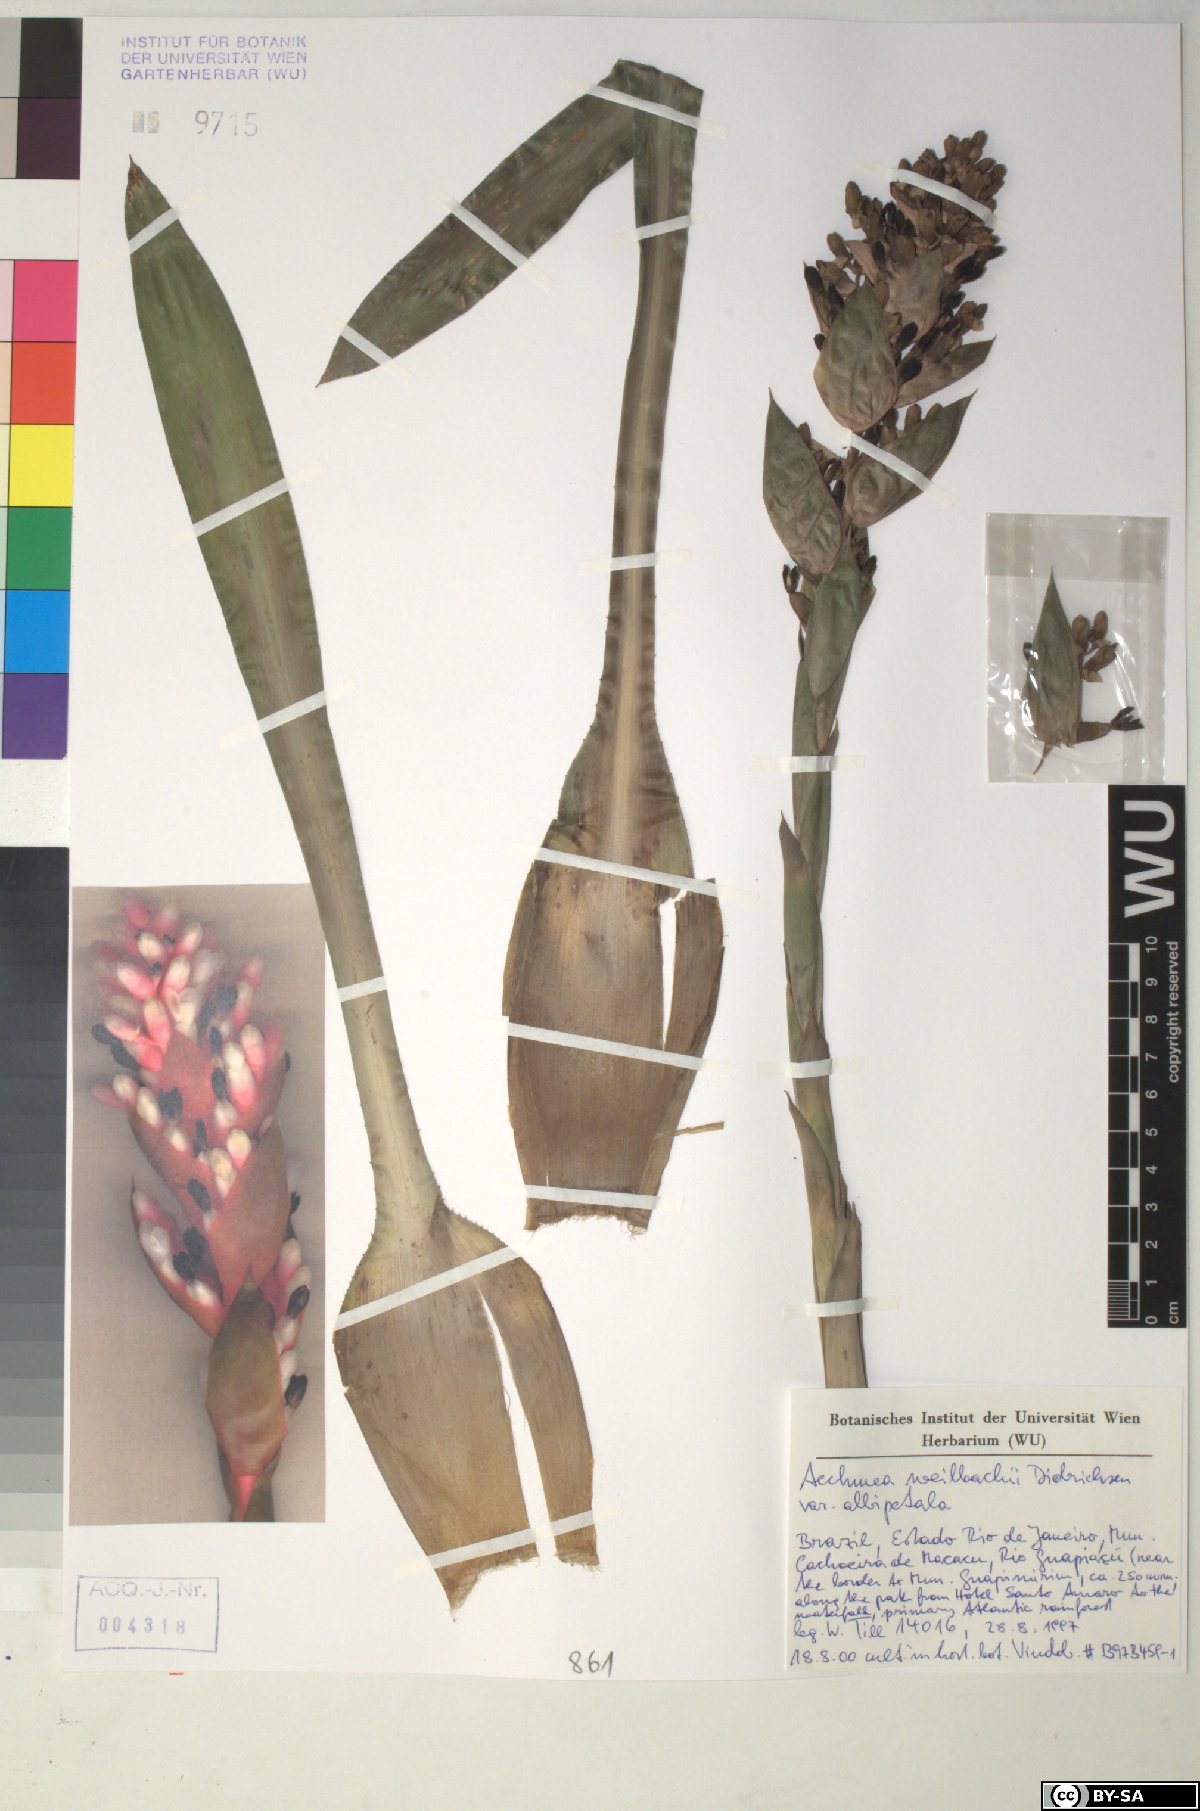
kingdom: Plantae
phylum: Tracheophyta
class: Liliopsida
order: Poales
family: Bromeliaceae
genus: Aechmea
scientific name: Aechmea weilbachii
